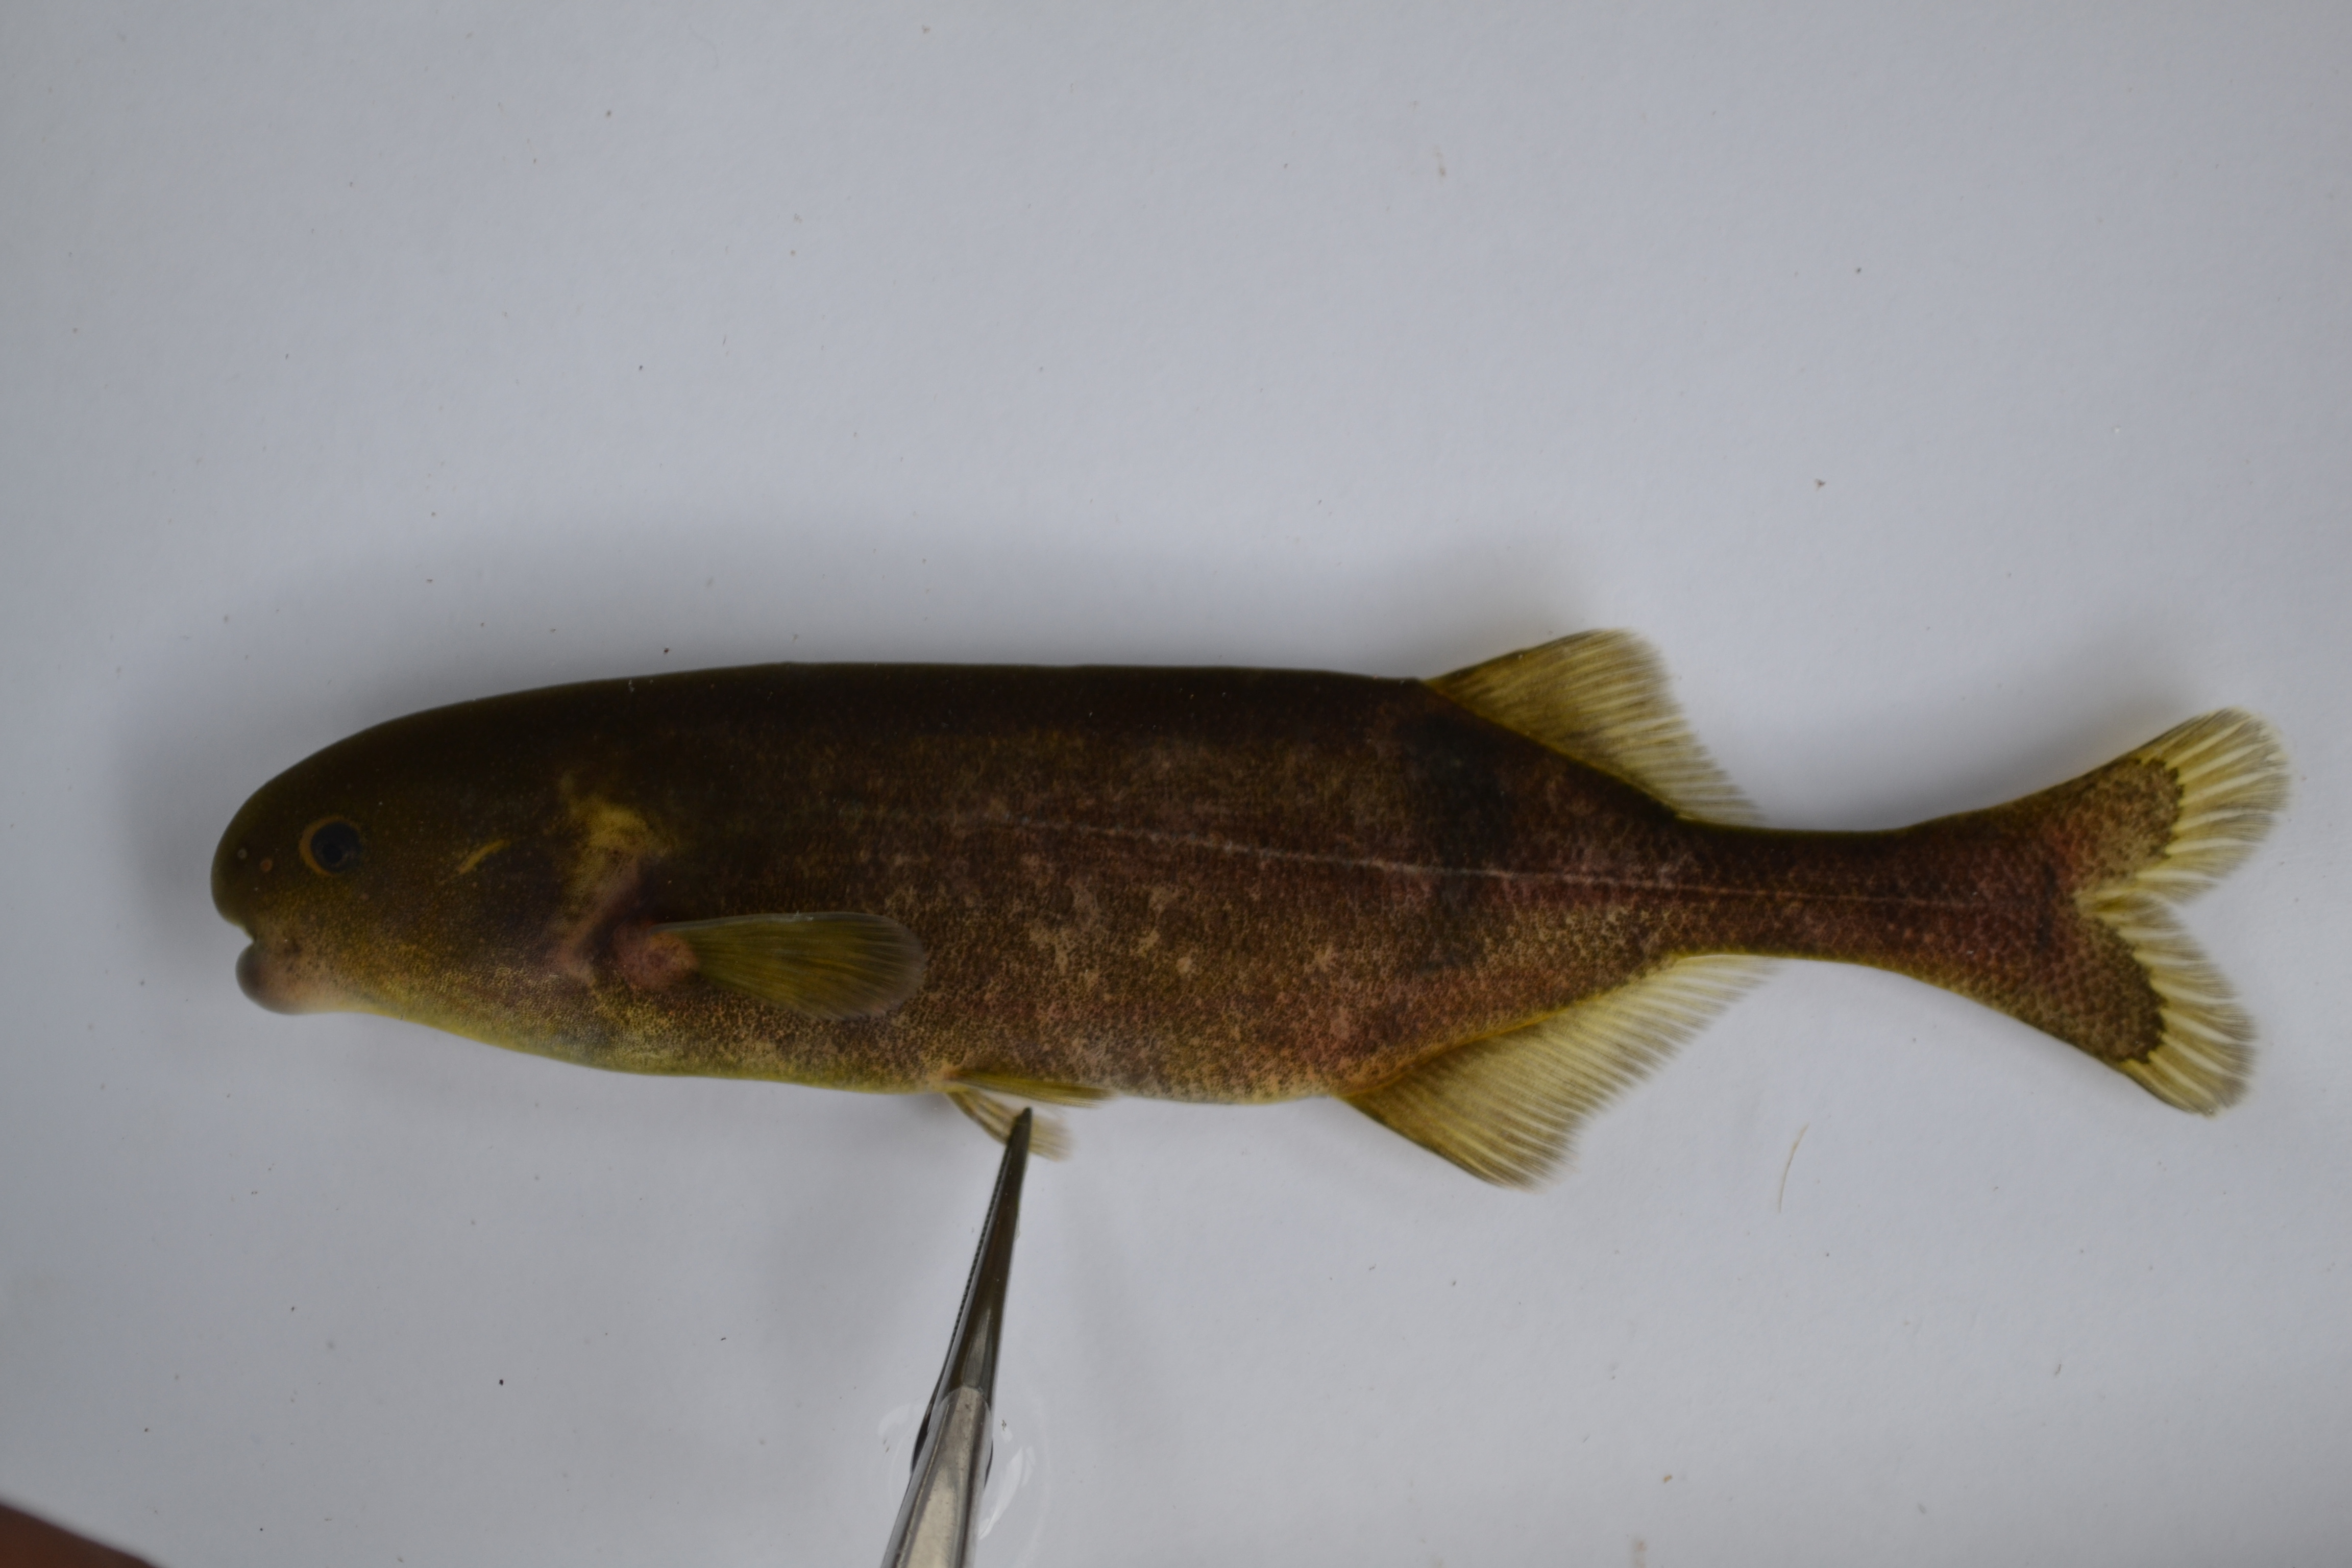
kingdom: Animalia
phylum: Chordata
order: Osteoglossiformes
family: Mormyridae
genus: Hippopotamyrus
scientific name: Hippopotamyrus
